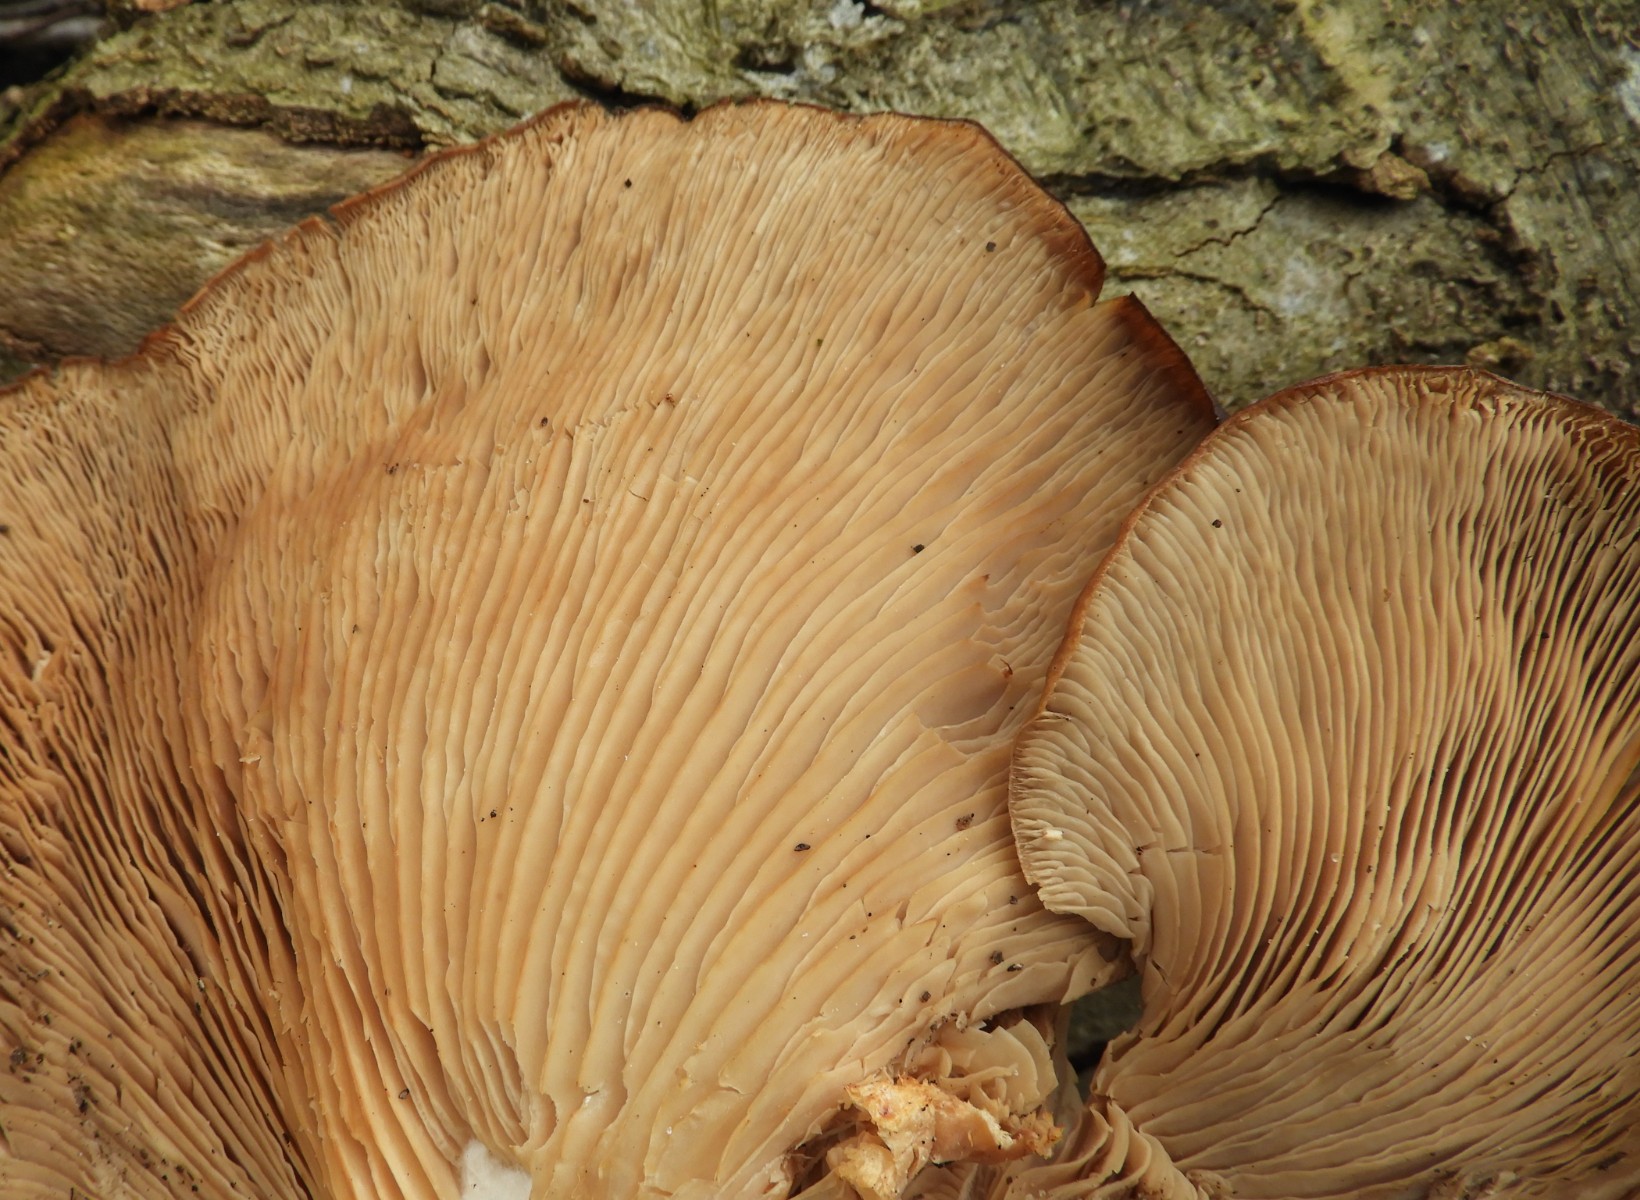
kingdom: Fungi
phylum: Basidiomycota
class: Agaricomycetes
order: Agaricales
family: Pleurotaceae
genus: Pleurotus
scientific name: Pleurotus ostreatus
